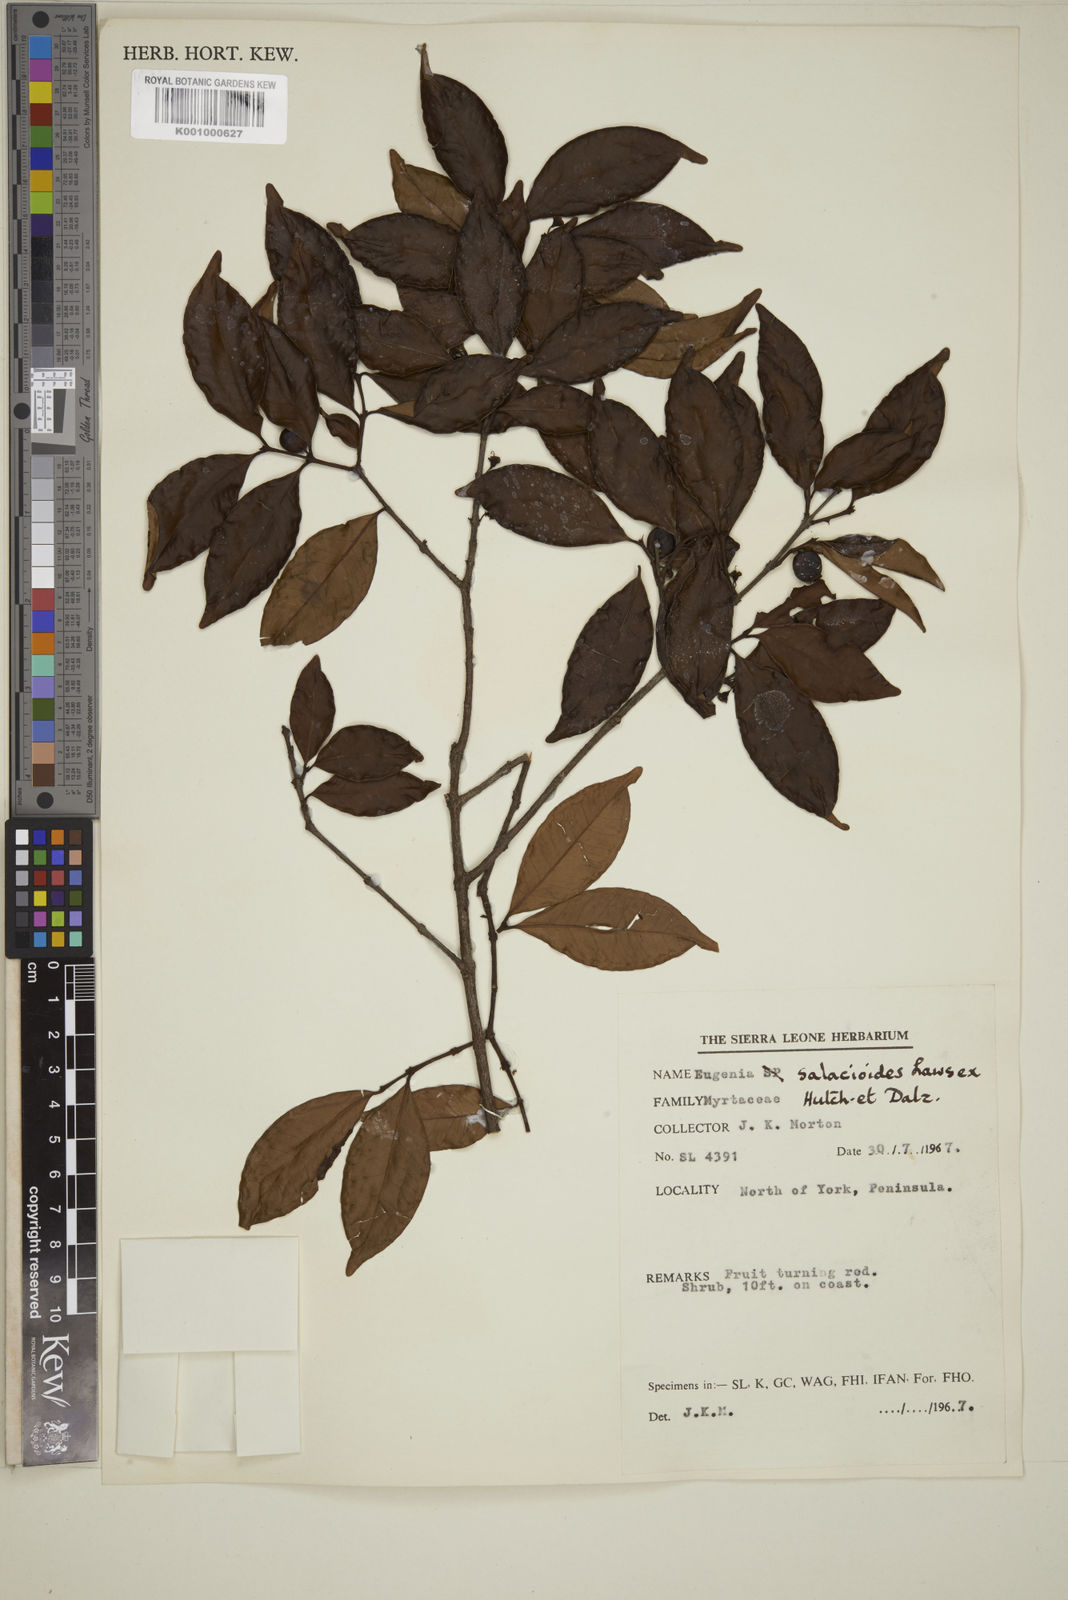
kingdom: Plantae
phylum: Tracheophyta
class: Magnoliopsida
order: Myrtales
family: Myrtaceae
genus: Eugenia
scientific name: Eugenia leonensis
